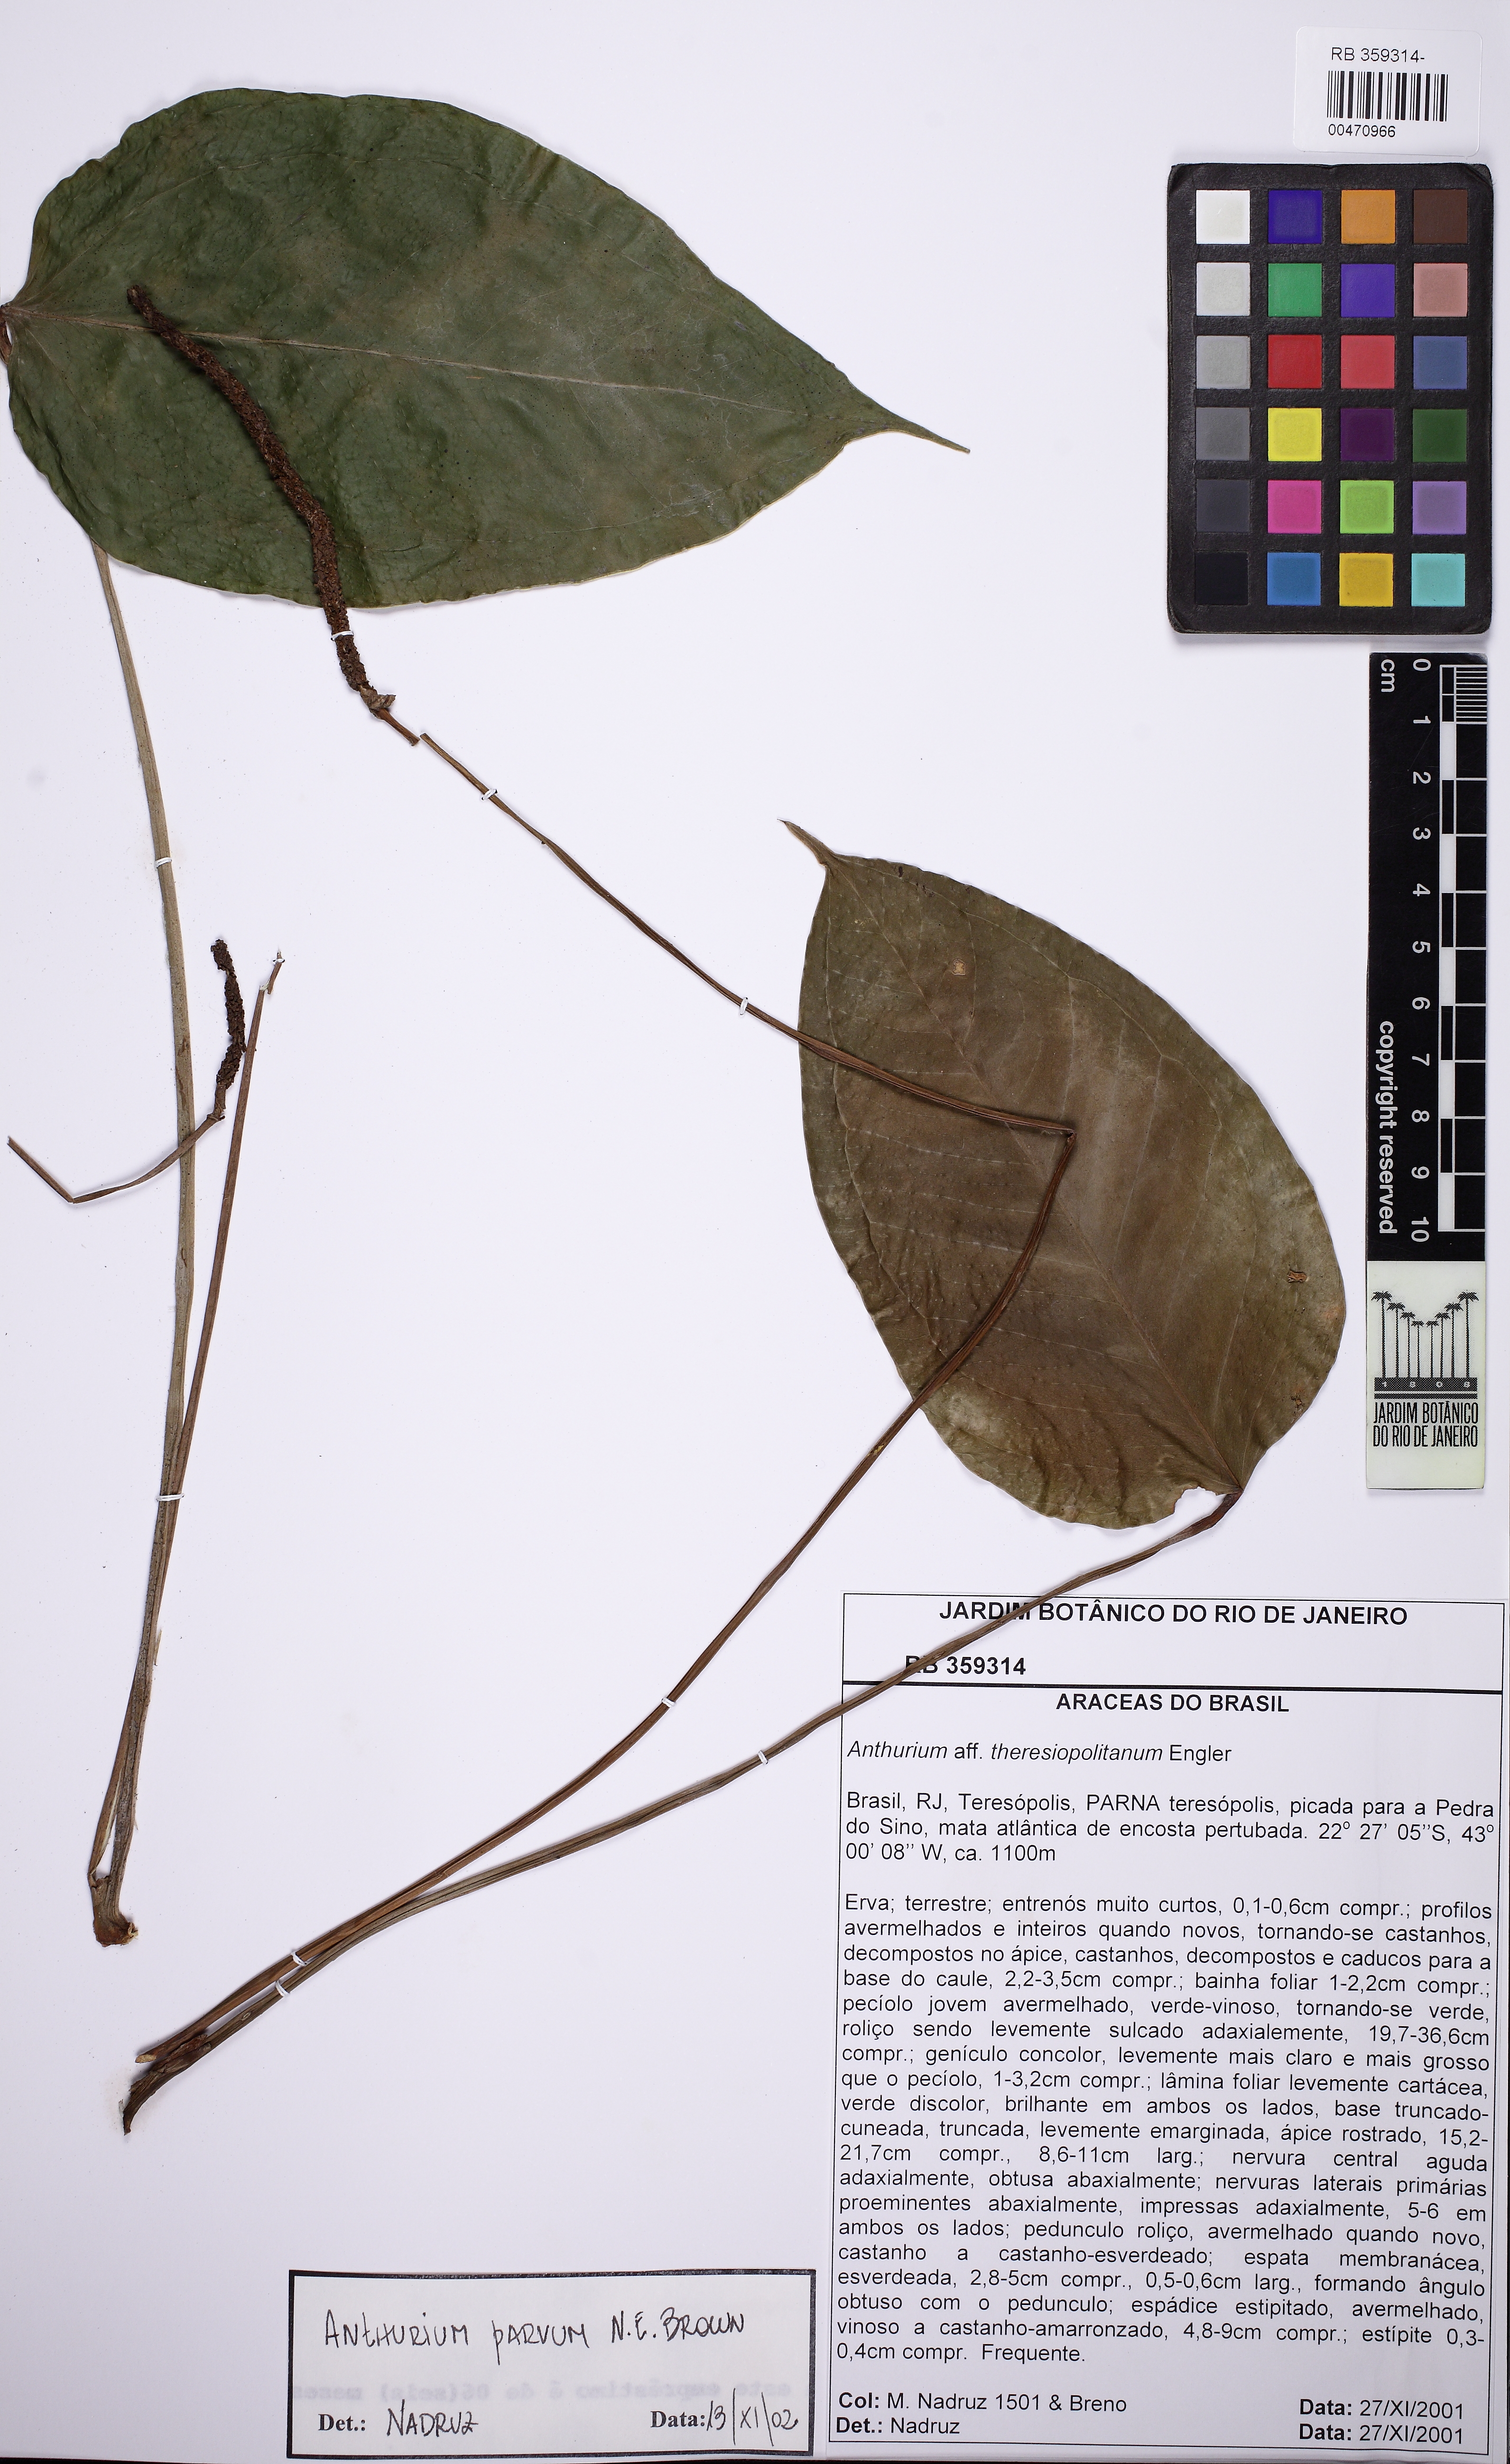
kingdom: Plantae
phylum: Tracheophyta
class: Liliopsida
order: Alismatales
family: Araceae
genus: Anthurium
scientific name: Anthurium parvum
